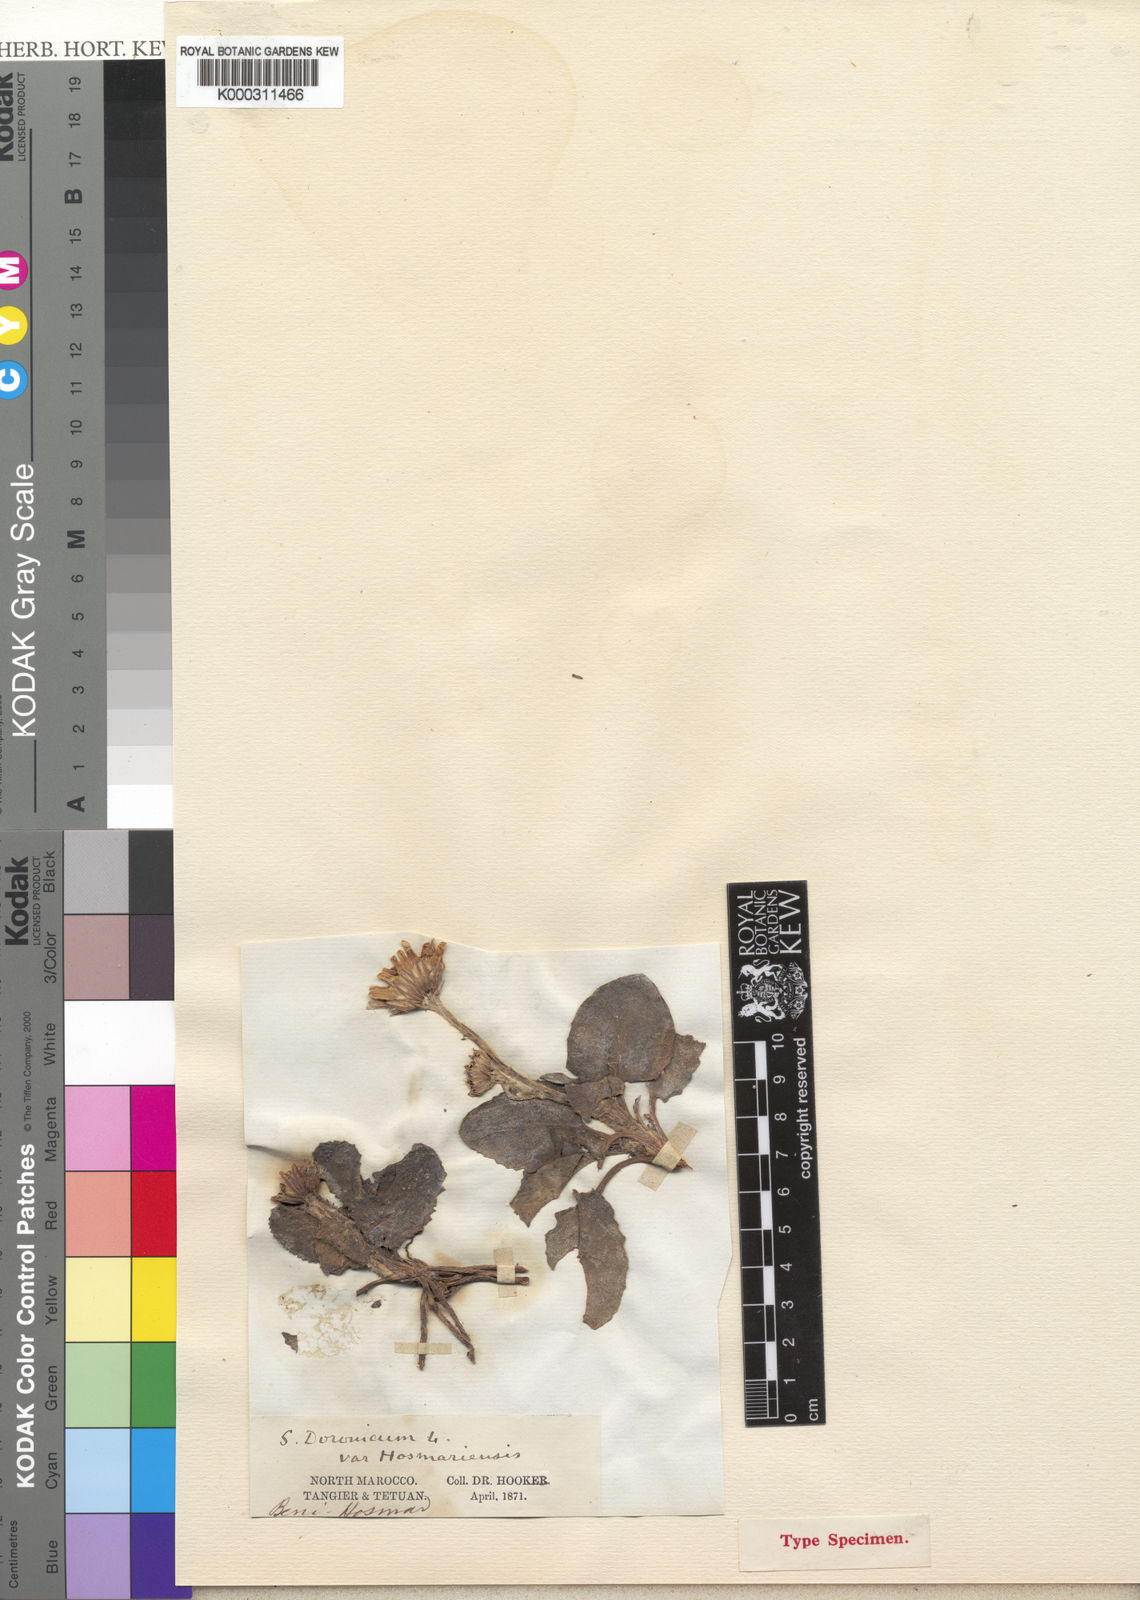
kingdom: Plantae
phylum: Tracheophyta
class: Magnoliopsida
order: Asterales
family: Asteraceae
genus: Senecio
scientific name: Senecio eriopus
